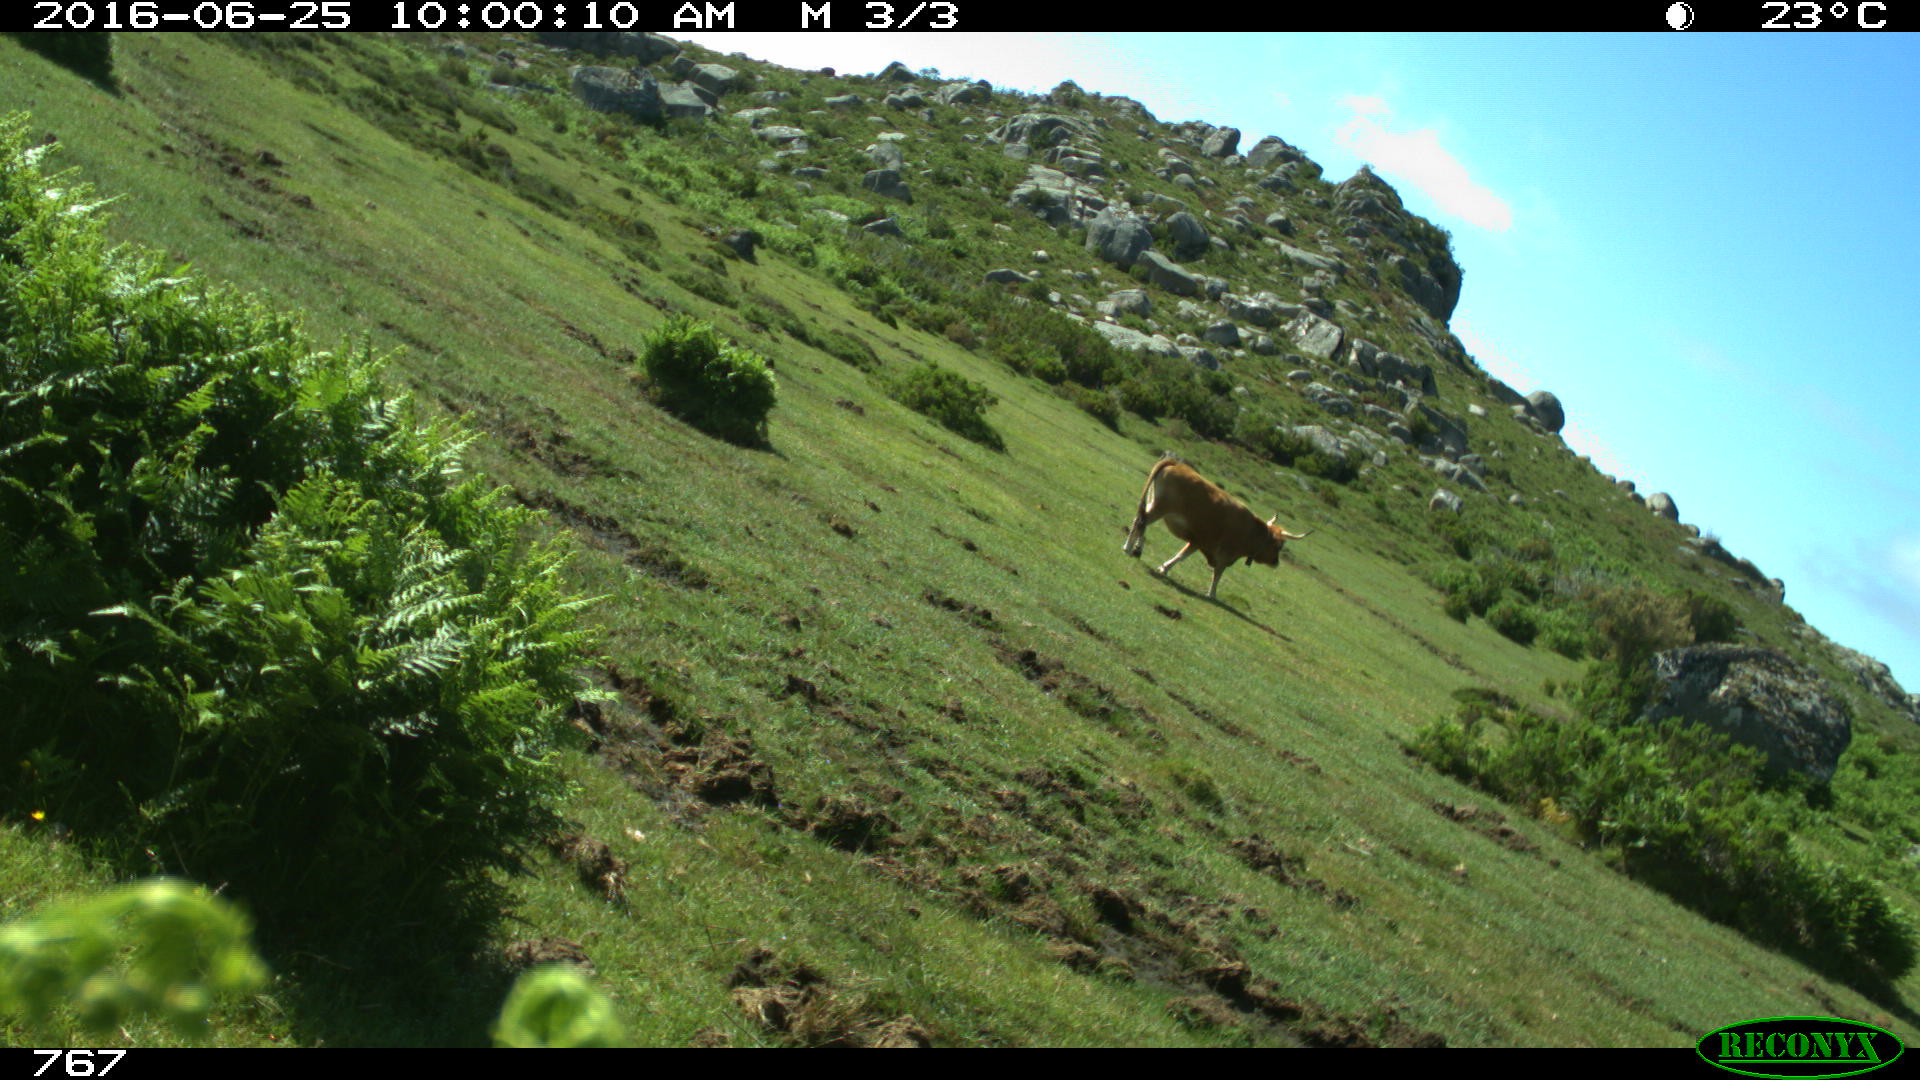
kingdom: Animalia
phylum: Chordata
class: Mammalia
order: Artiodactyla
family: Bovidae
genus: Bos
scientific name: Bos taurus
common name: Domesticated cattle
